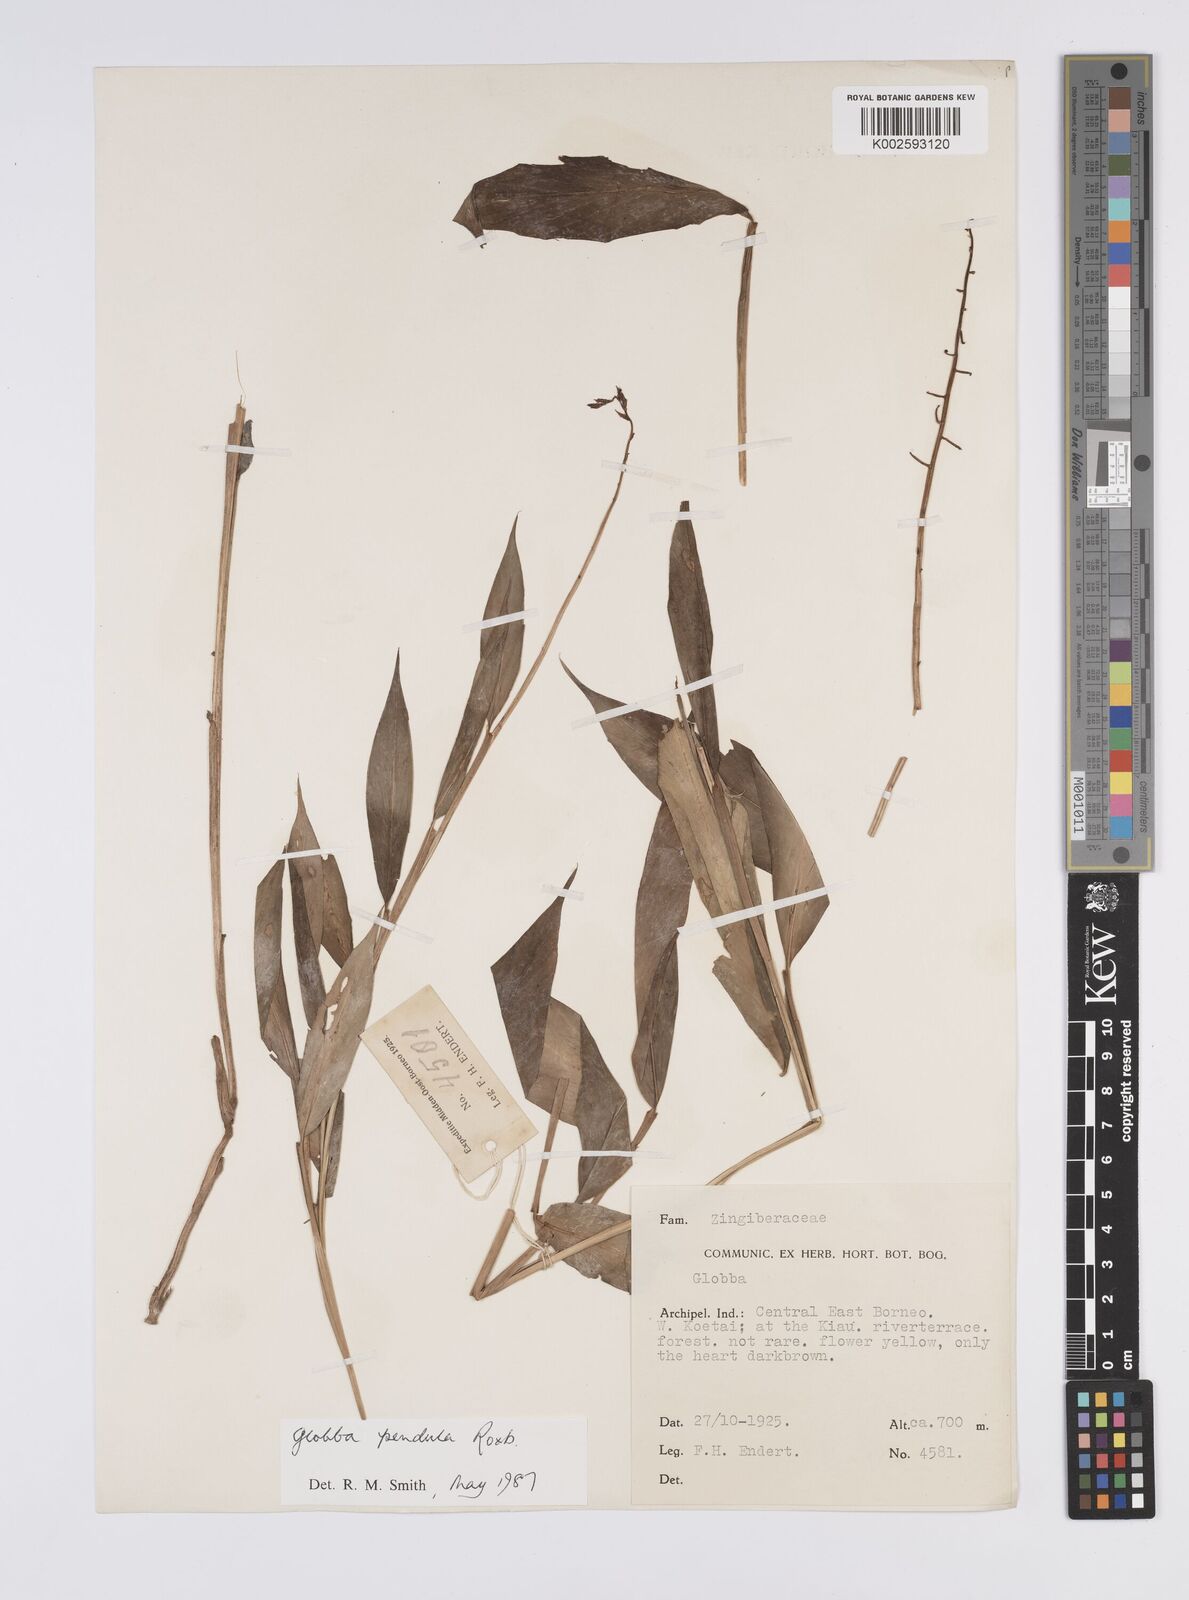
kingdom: Plantae
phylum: Tracheophyta
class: Liliopsida
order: Zingiberales
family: Zingiberaceae
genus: Globba
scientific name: Globba pendula
